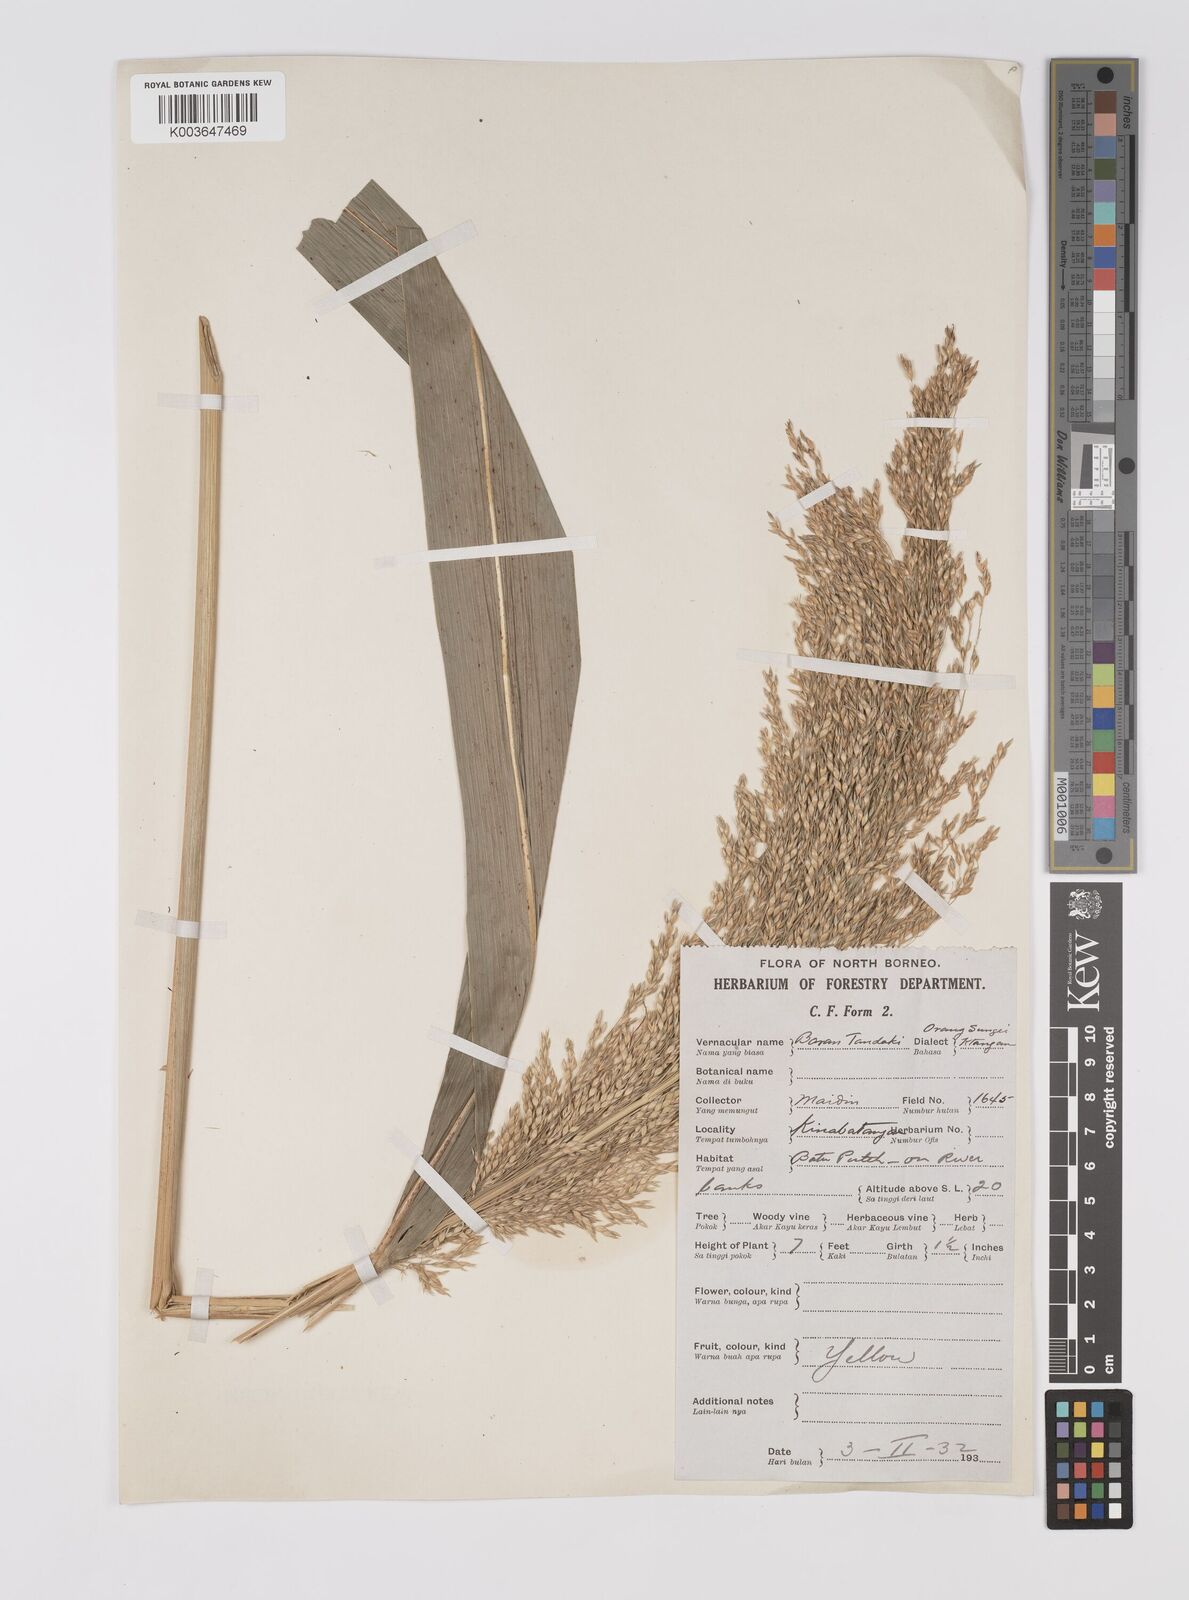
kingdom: Plantae
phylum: Tracheophyta
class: Liliopsida
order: Poales
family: Poaceae
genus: Sorghum
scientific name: Sorghum propinquum
